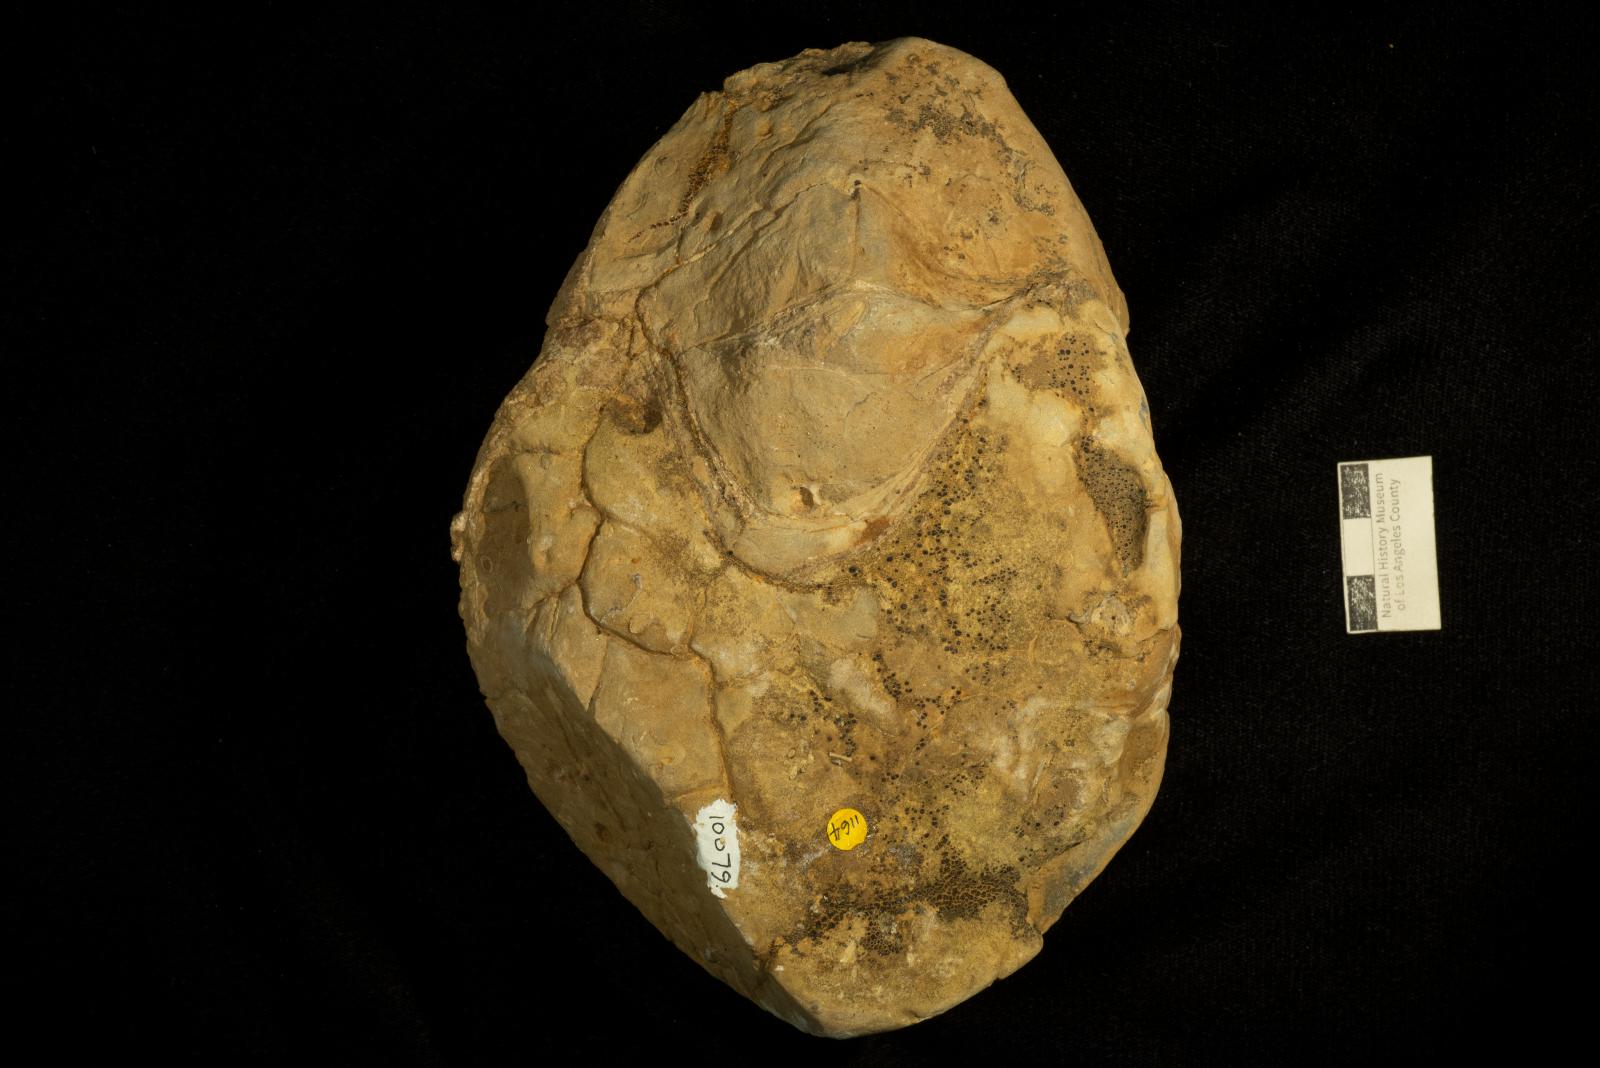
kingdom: Animalia
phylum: Mollusca
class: Cephalopoda
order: Nautilida
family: Nautilidae
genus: Eutrephoceras
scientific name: Eutrephoceras
